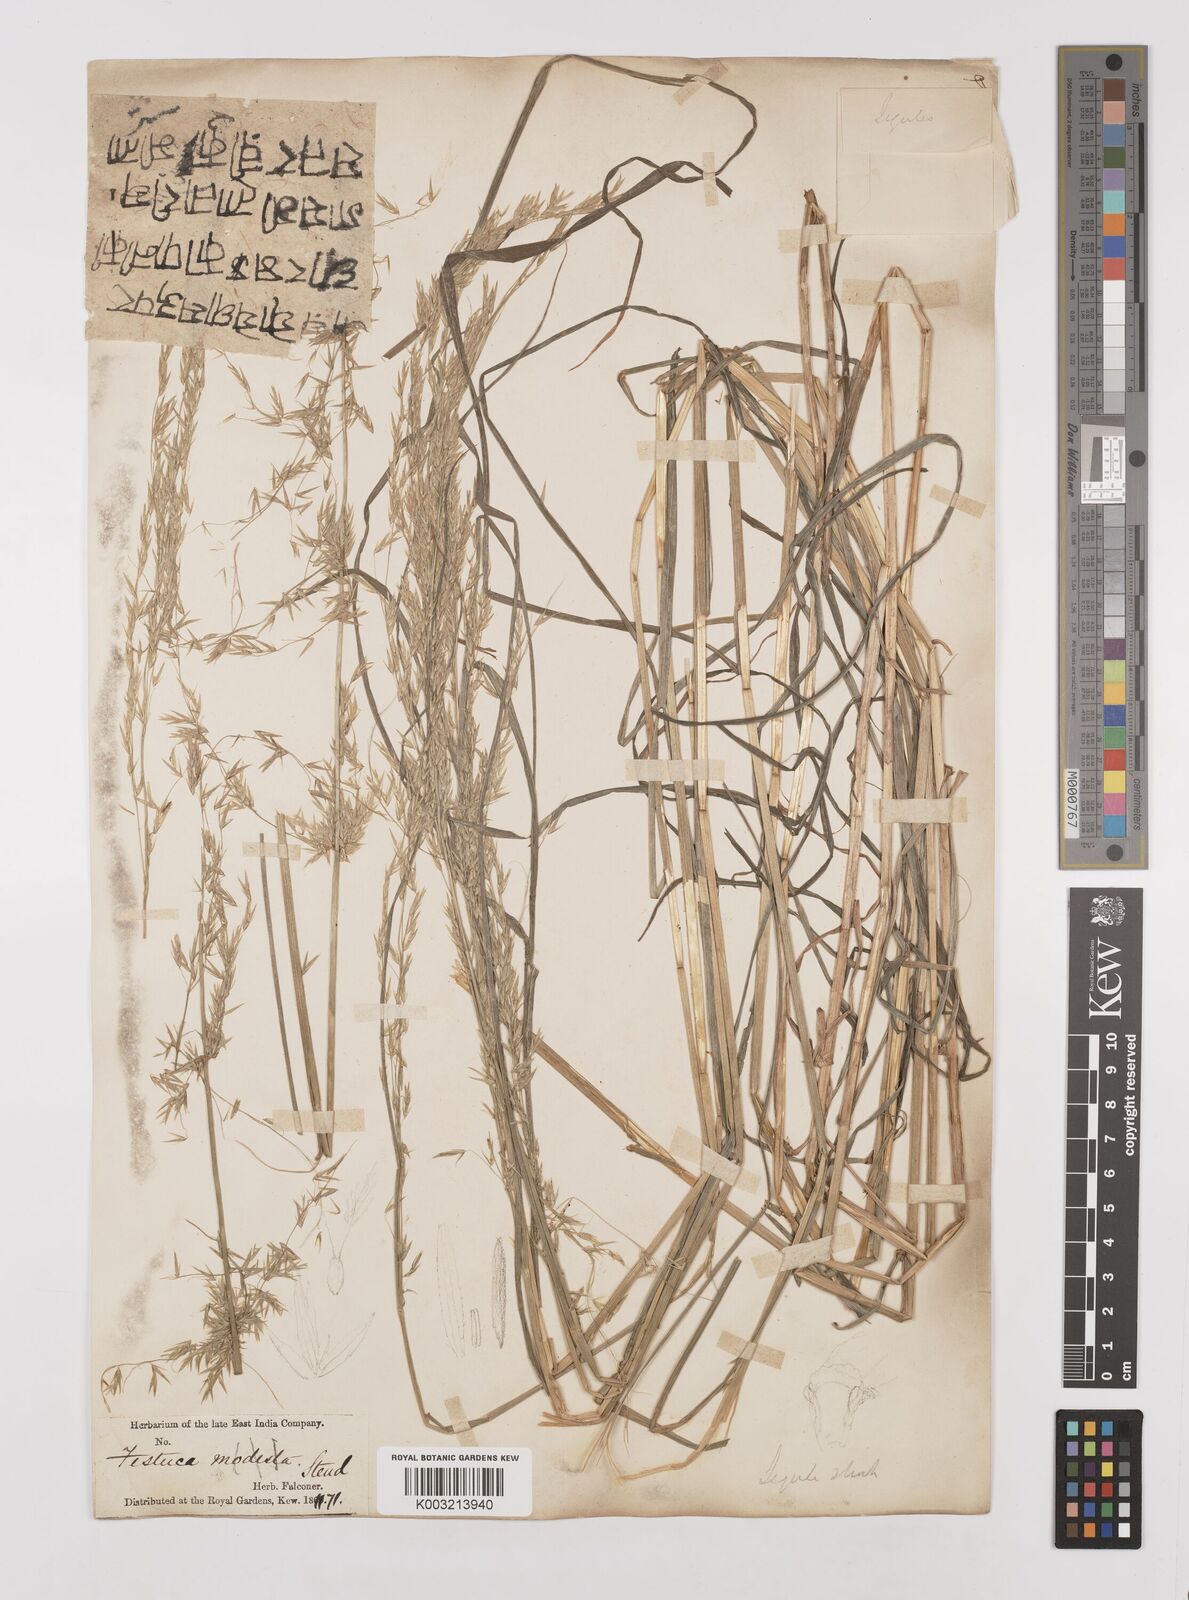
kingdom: Plantae
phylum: Tracheophyta
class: Liliopsida
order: Poales
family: Poaceae
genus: Melica
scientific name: Melica scaberrima
